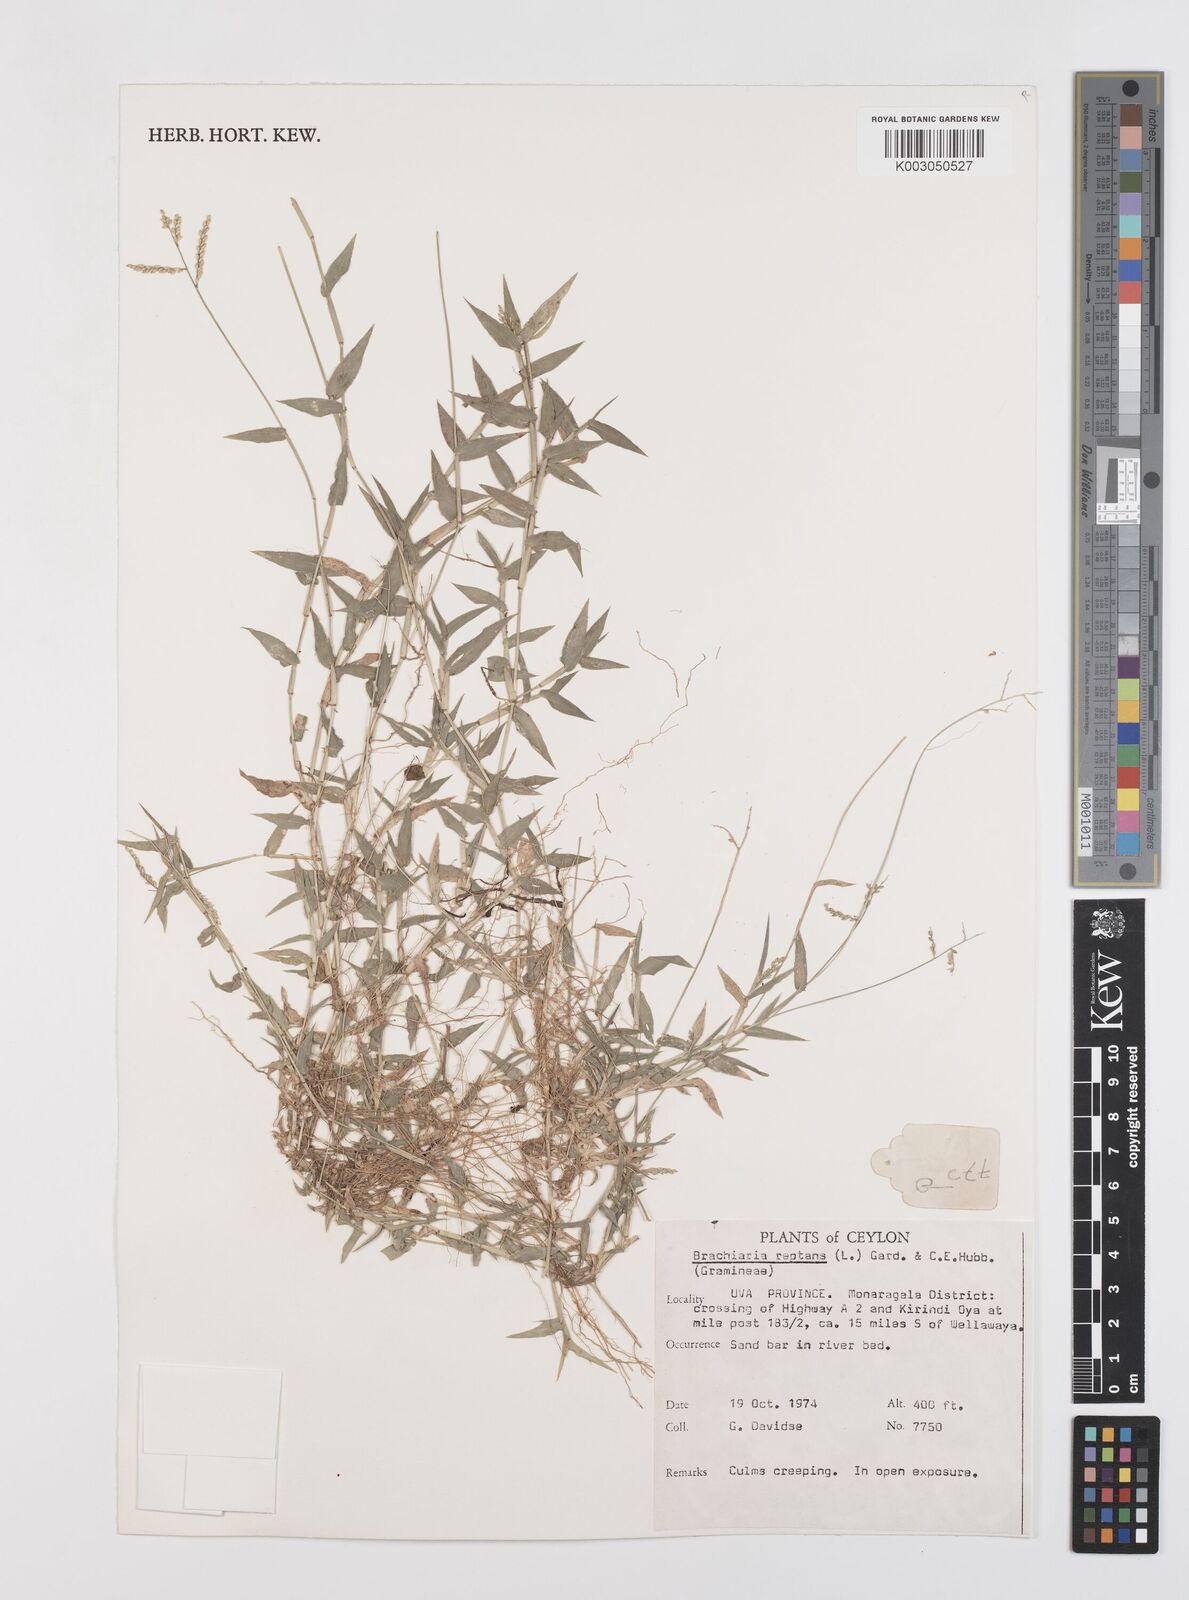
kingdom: Plantae
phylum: Tracheophyta
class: Liliopsida
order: Poales
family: Poaceae
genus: Urochloa
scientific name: Urochloa reptans
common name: Sprawling signalgrass
